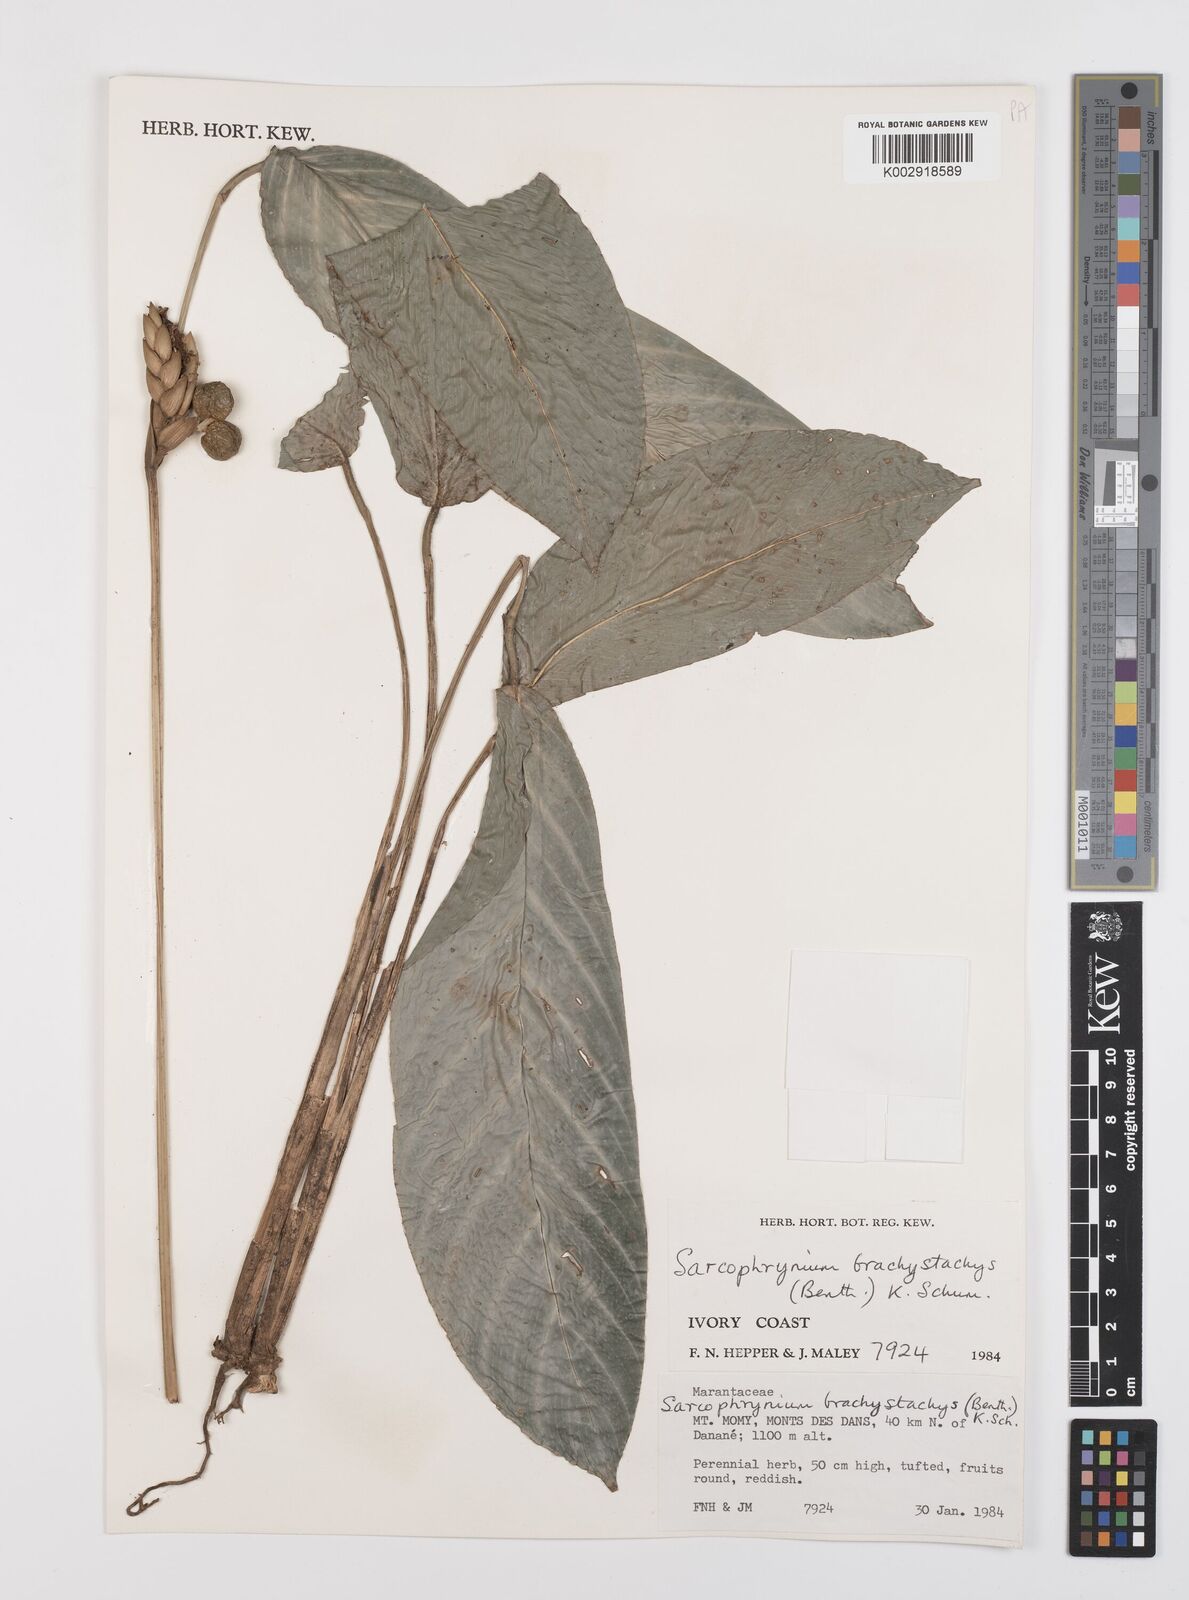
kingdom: Plantae
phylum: Tracheophyta
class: Liliopsida
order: Zingiberales
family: Marantaceae
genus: Sarcophrynium
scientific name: Sarcophrynium brachystachyum
